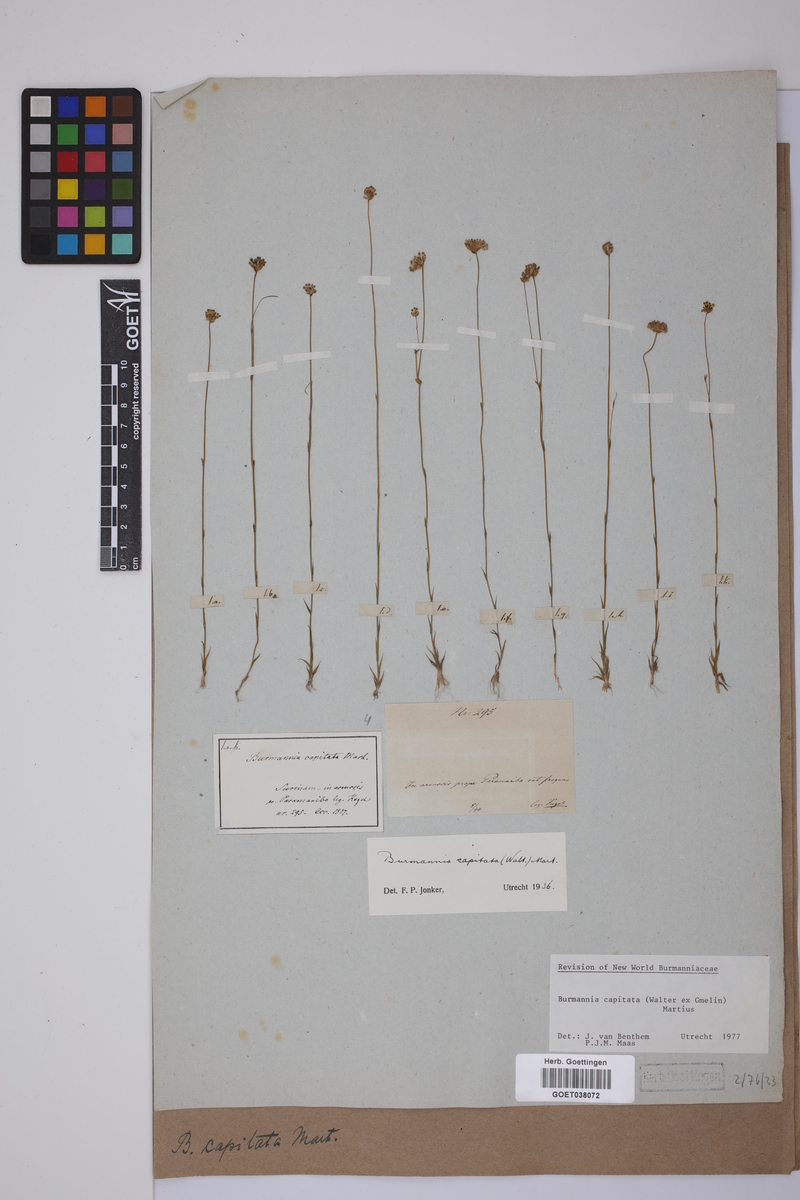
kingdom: Plantae
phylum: Tracheophyta
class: Liliopsida
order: Dioscoreales
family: Burmanniaceae
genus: Burmannia
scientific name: Burmannia capitata
